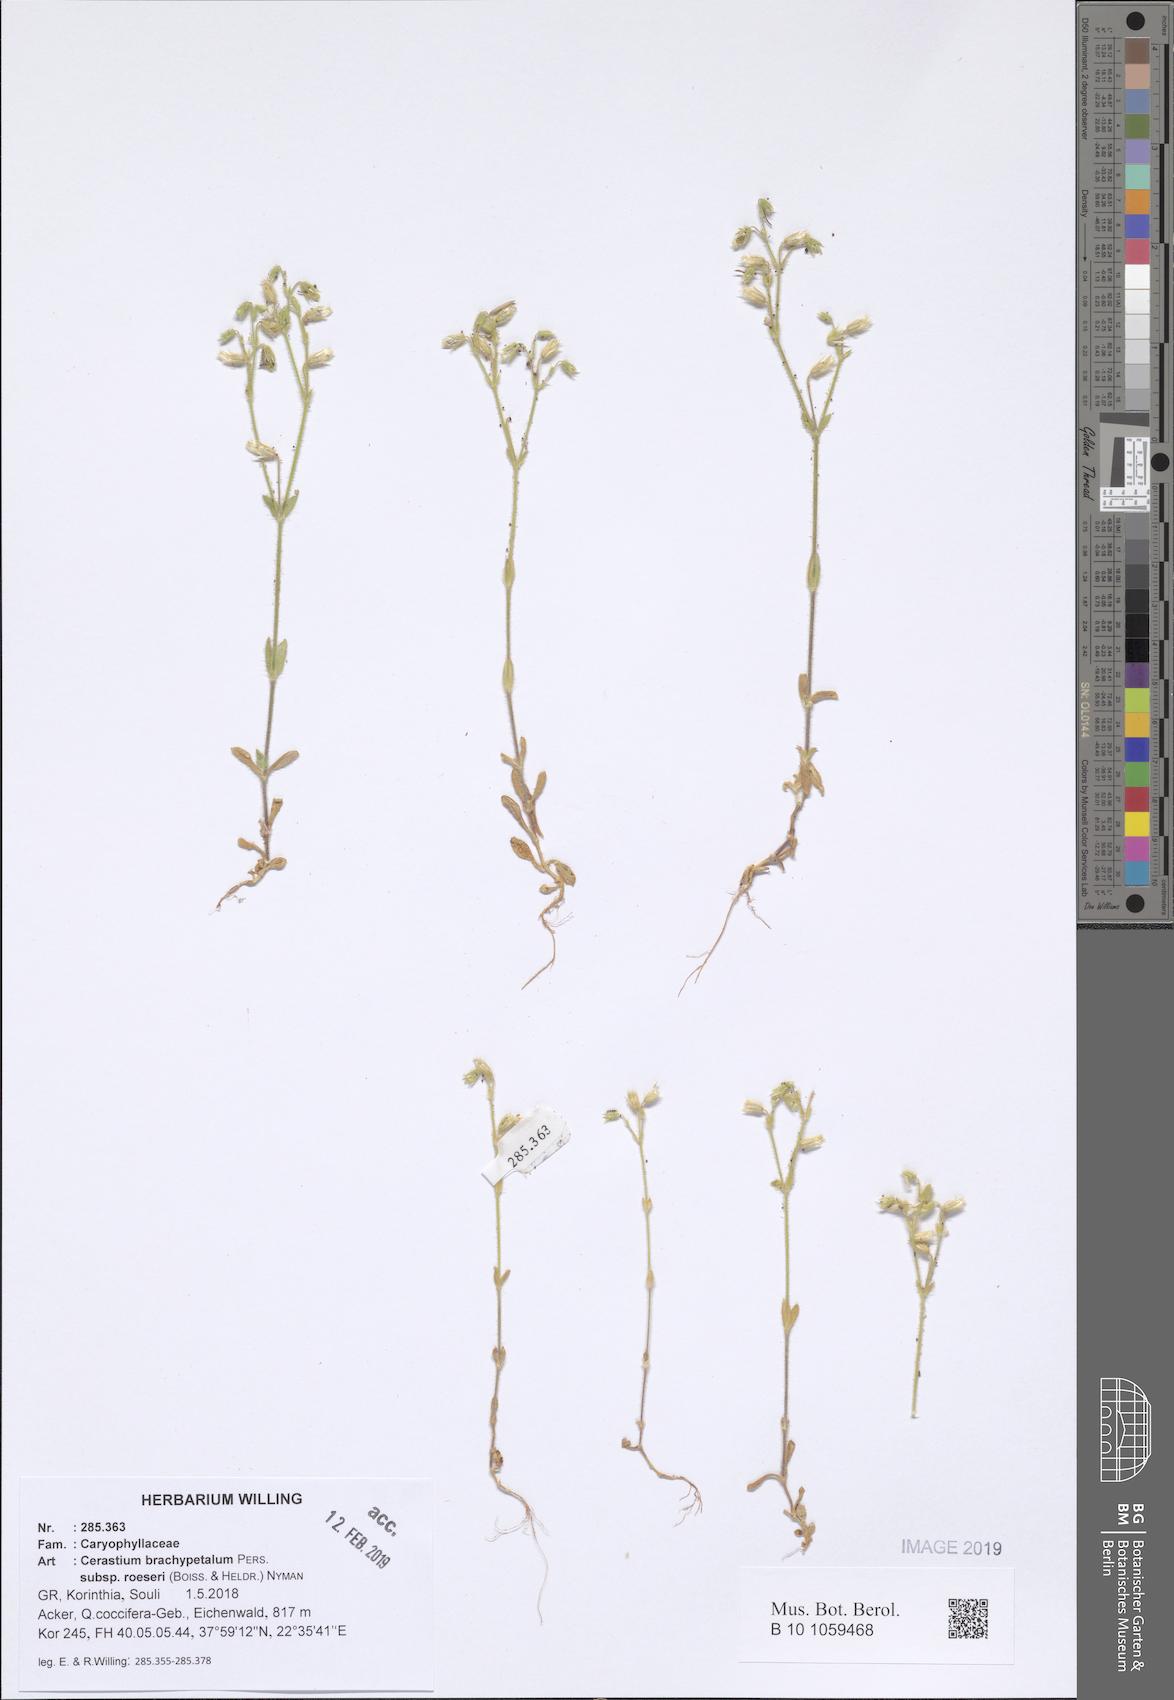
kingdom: Plantae
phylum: Tracheophyta
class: Magnoliopsida
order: Caryophyllales
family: Caryophyllaceae
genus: Cerastium
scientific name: Cerastium brachypetalum
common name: Grey mouse-ear
